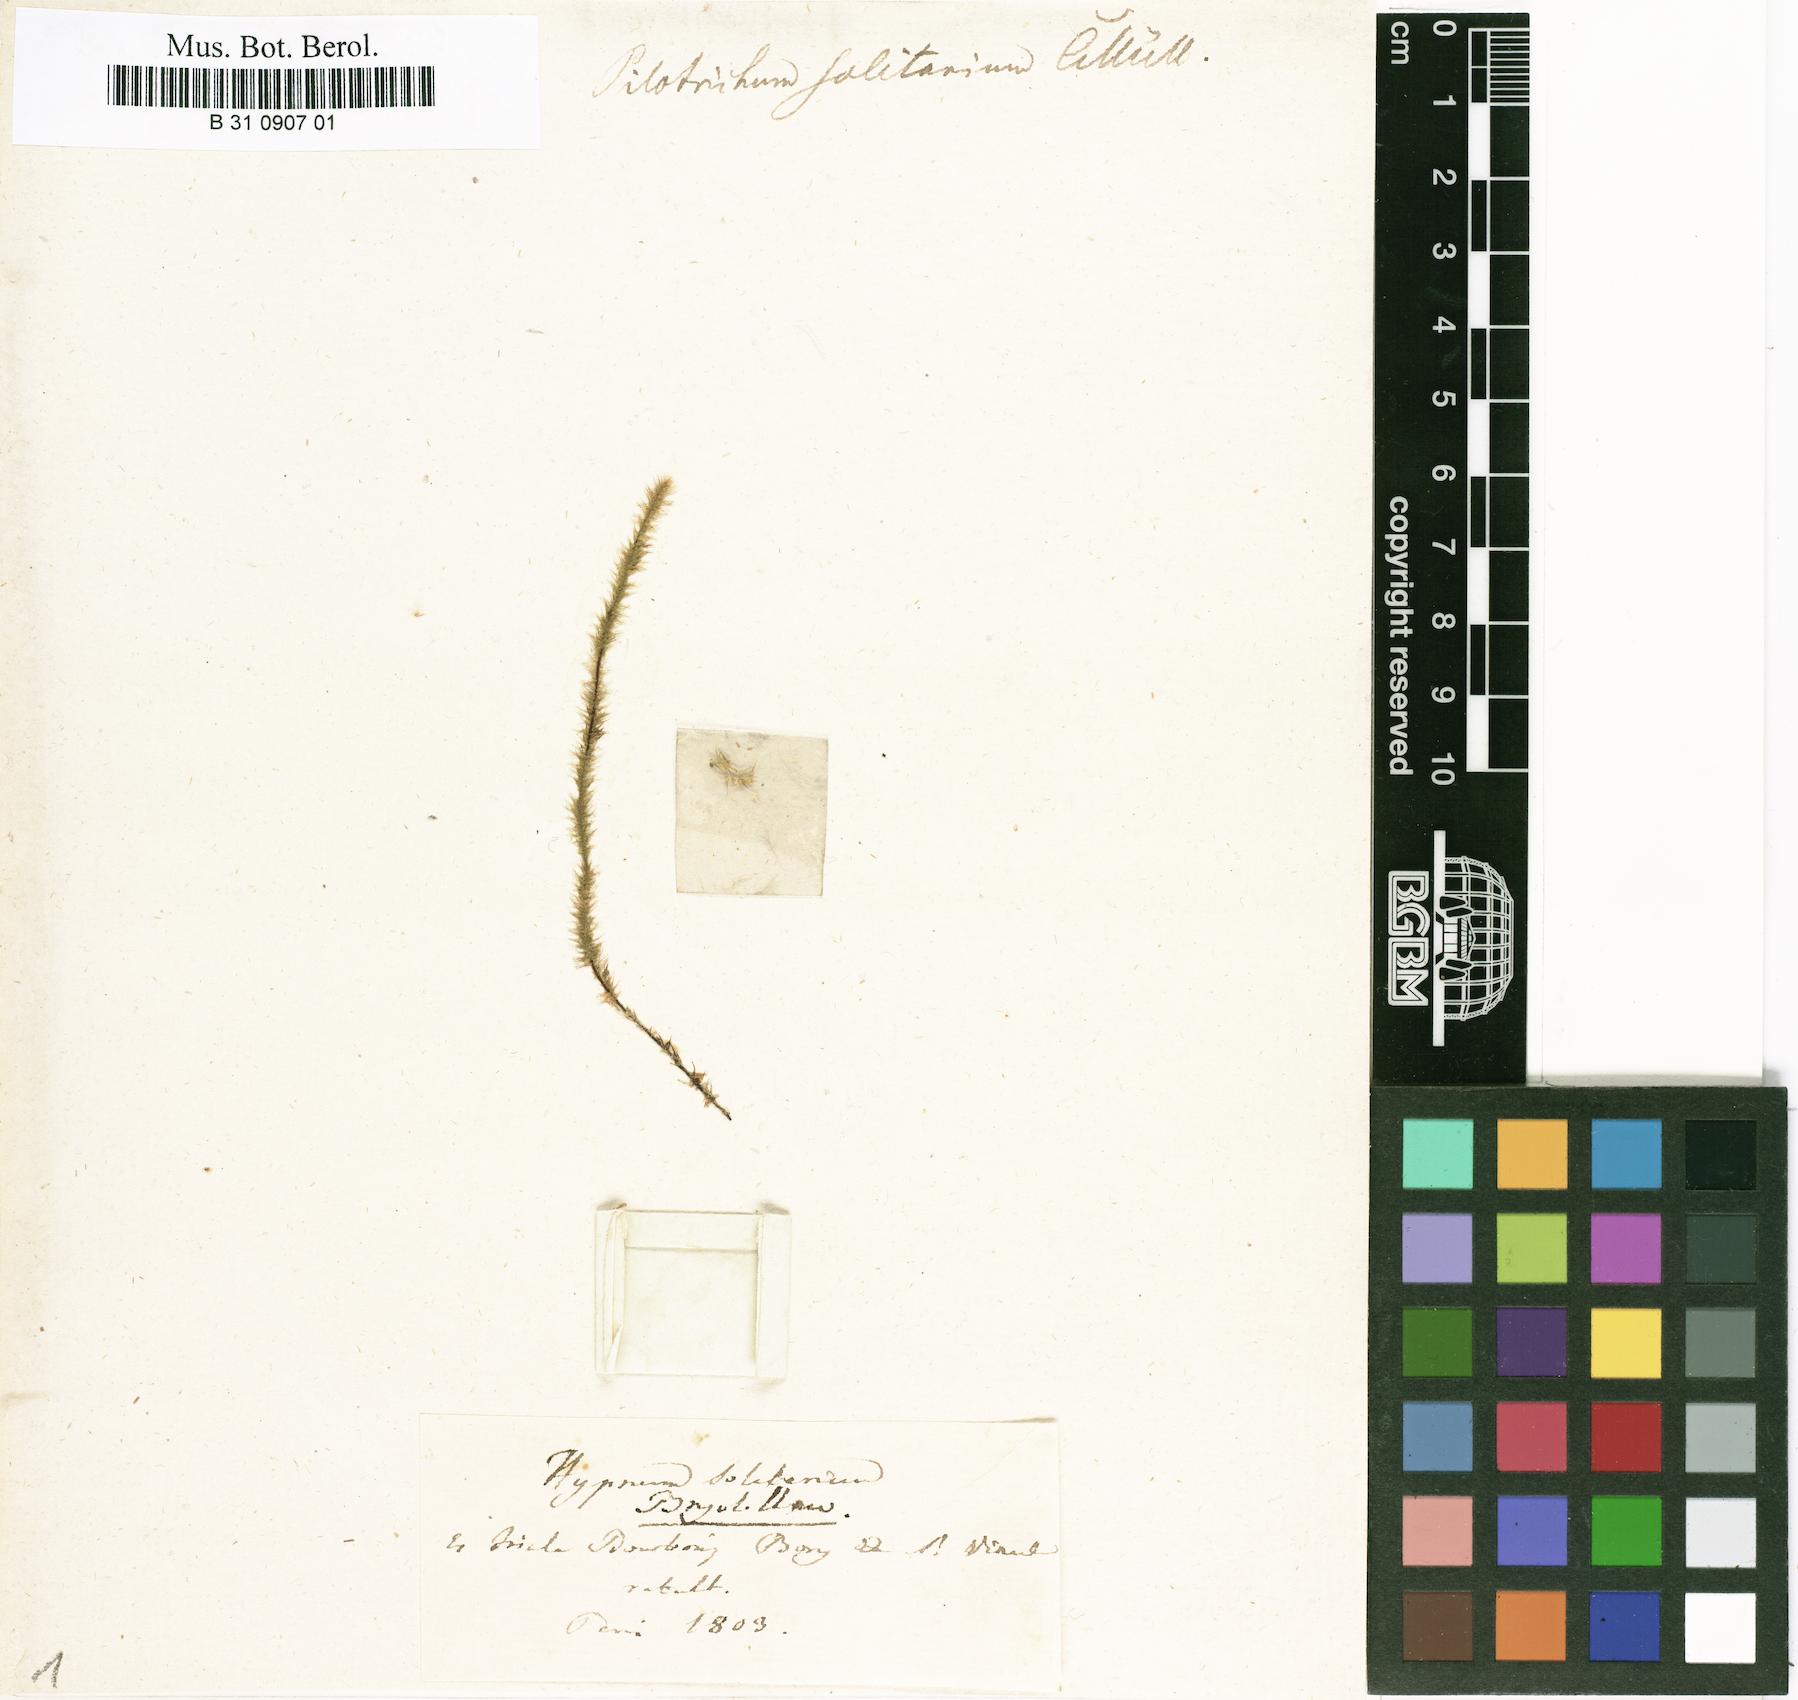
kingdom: Plantae
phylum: Bryophyta
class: Bryopsida
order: Hypnales
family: Pterobryaceae
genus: Jaegerina
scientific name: Jaegerina solitaria
